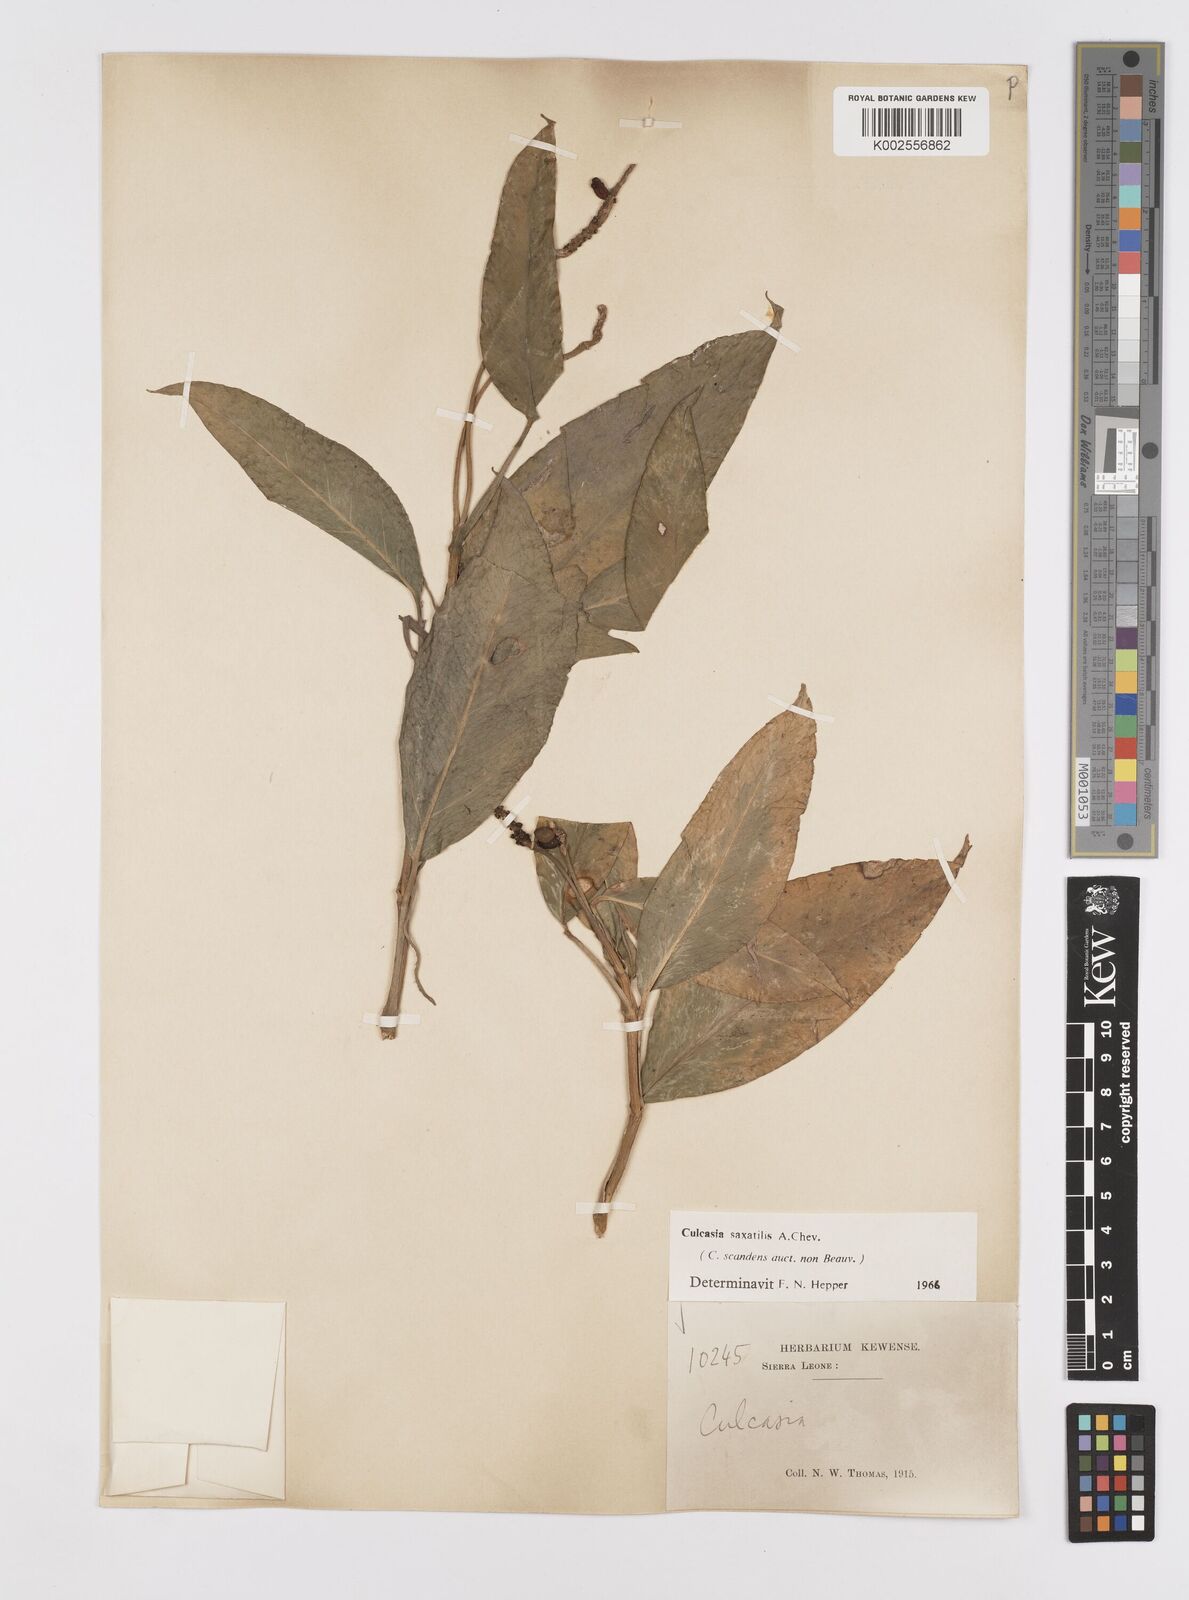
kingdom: Plantae
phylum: Tracheophyta
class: Liliopsida
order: Alismatales
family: Araceae
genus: Culcasia
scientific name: Culcasia scandens
